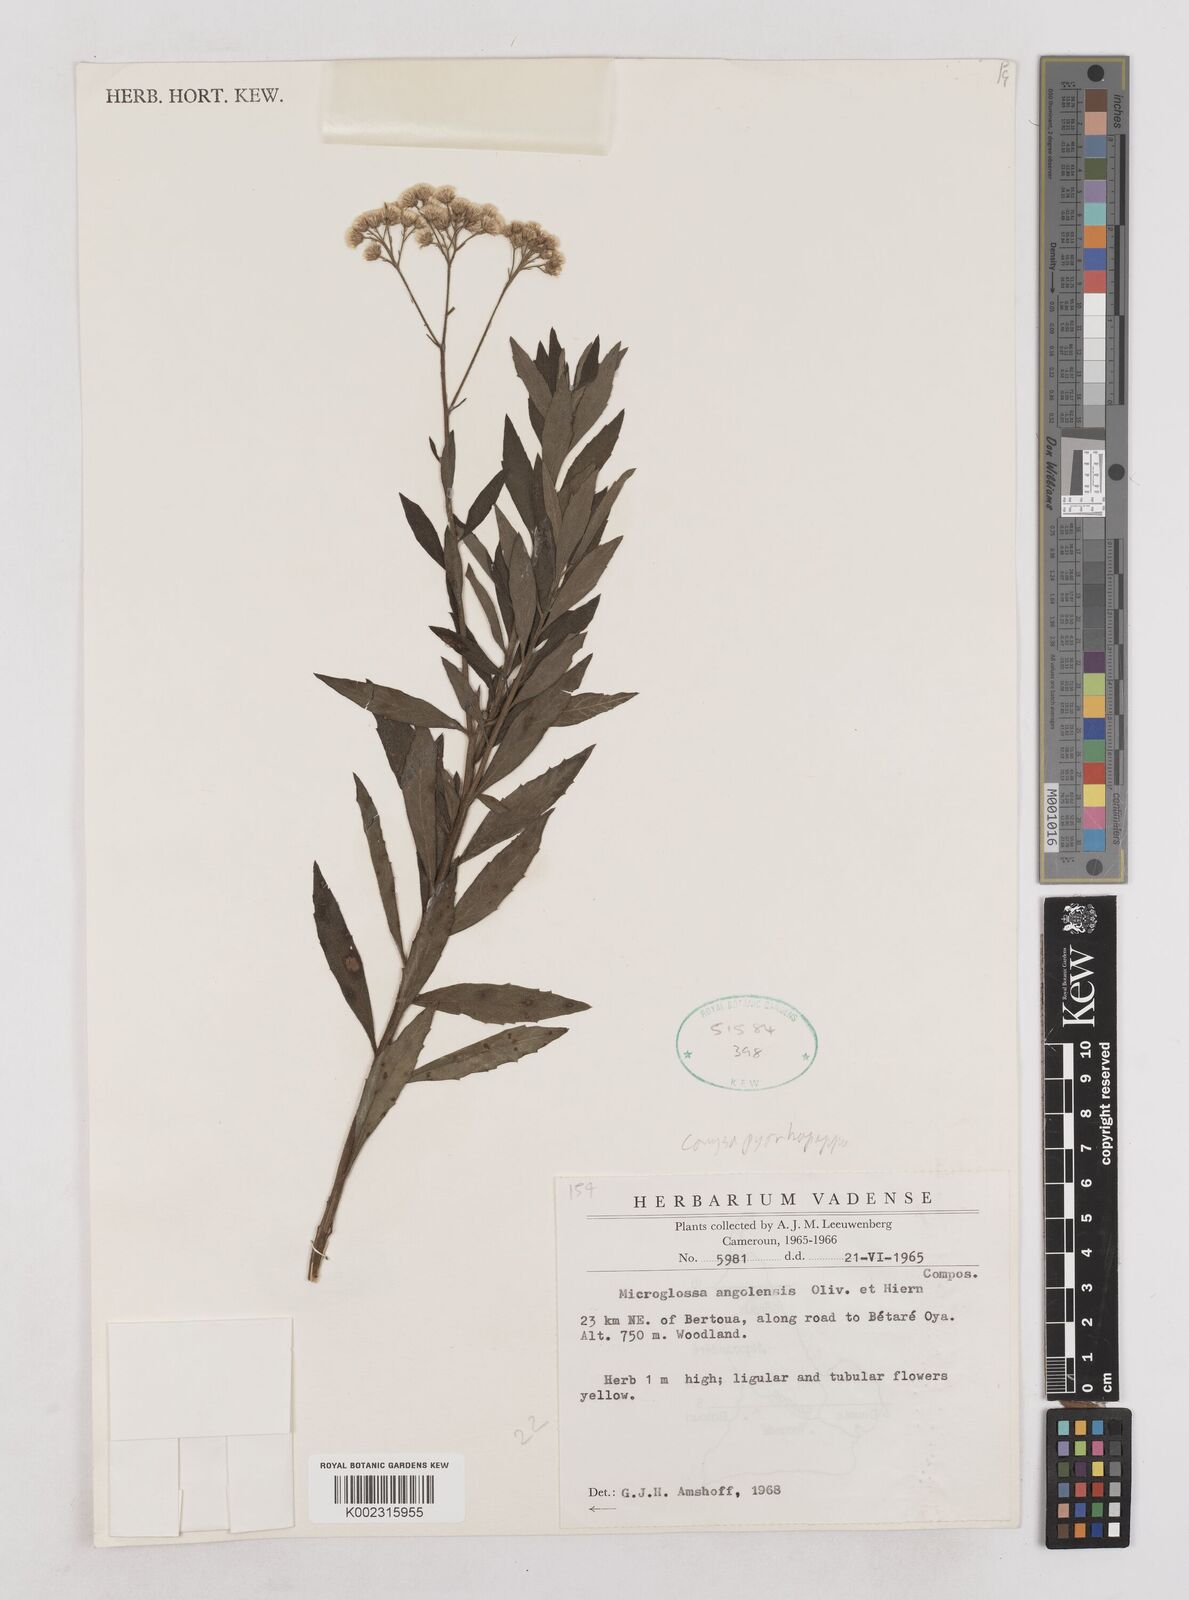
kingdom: Plantae
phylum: Tracheophyta
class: Magnoliopsida
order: Asterales
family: Asteraceae
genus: Microglossa
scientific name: Microglossa pyrrhopappa
